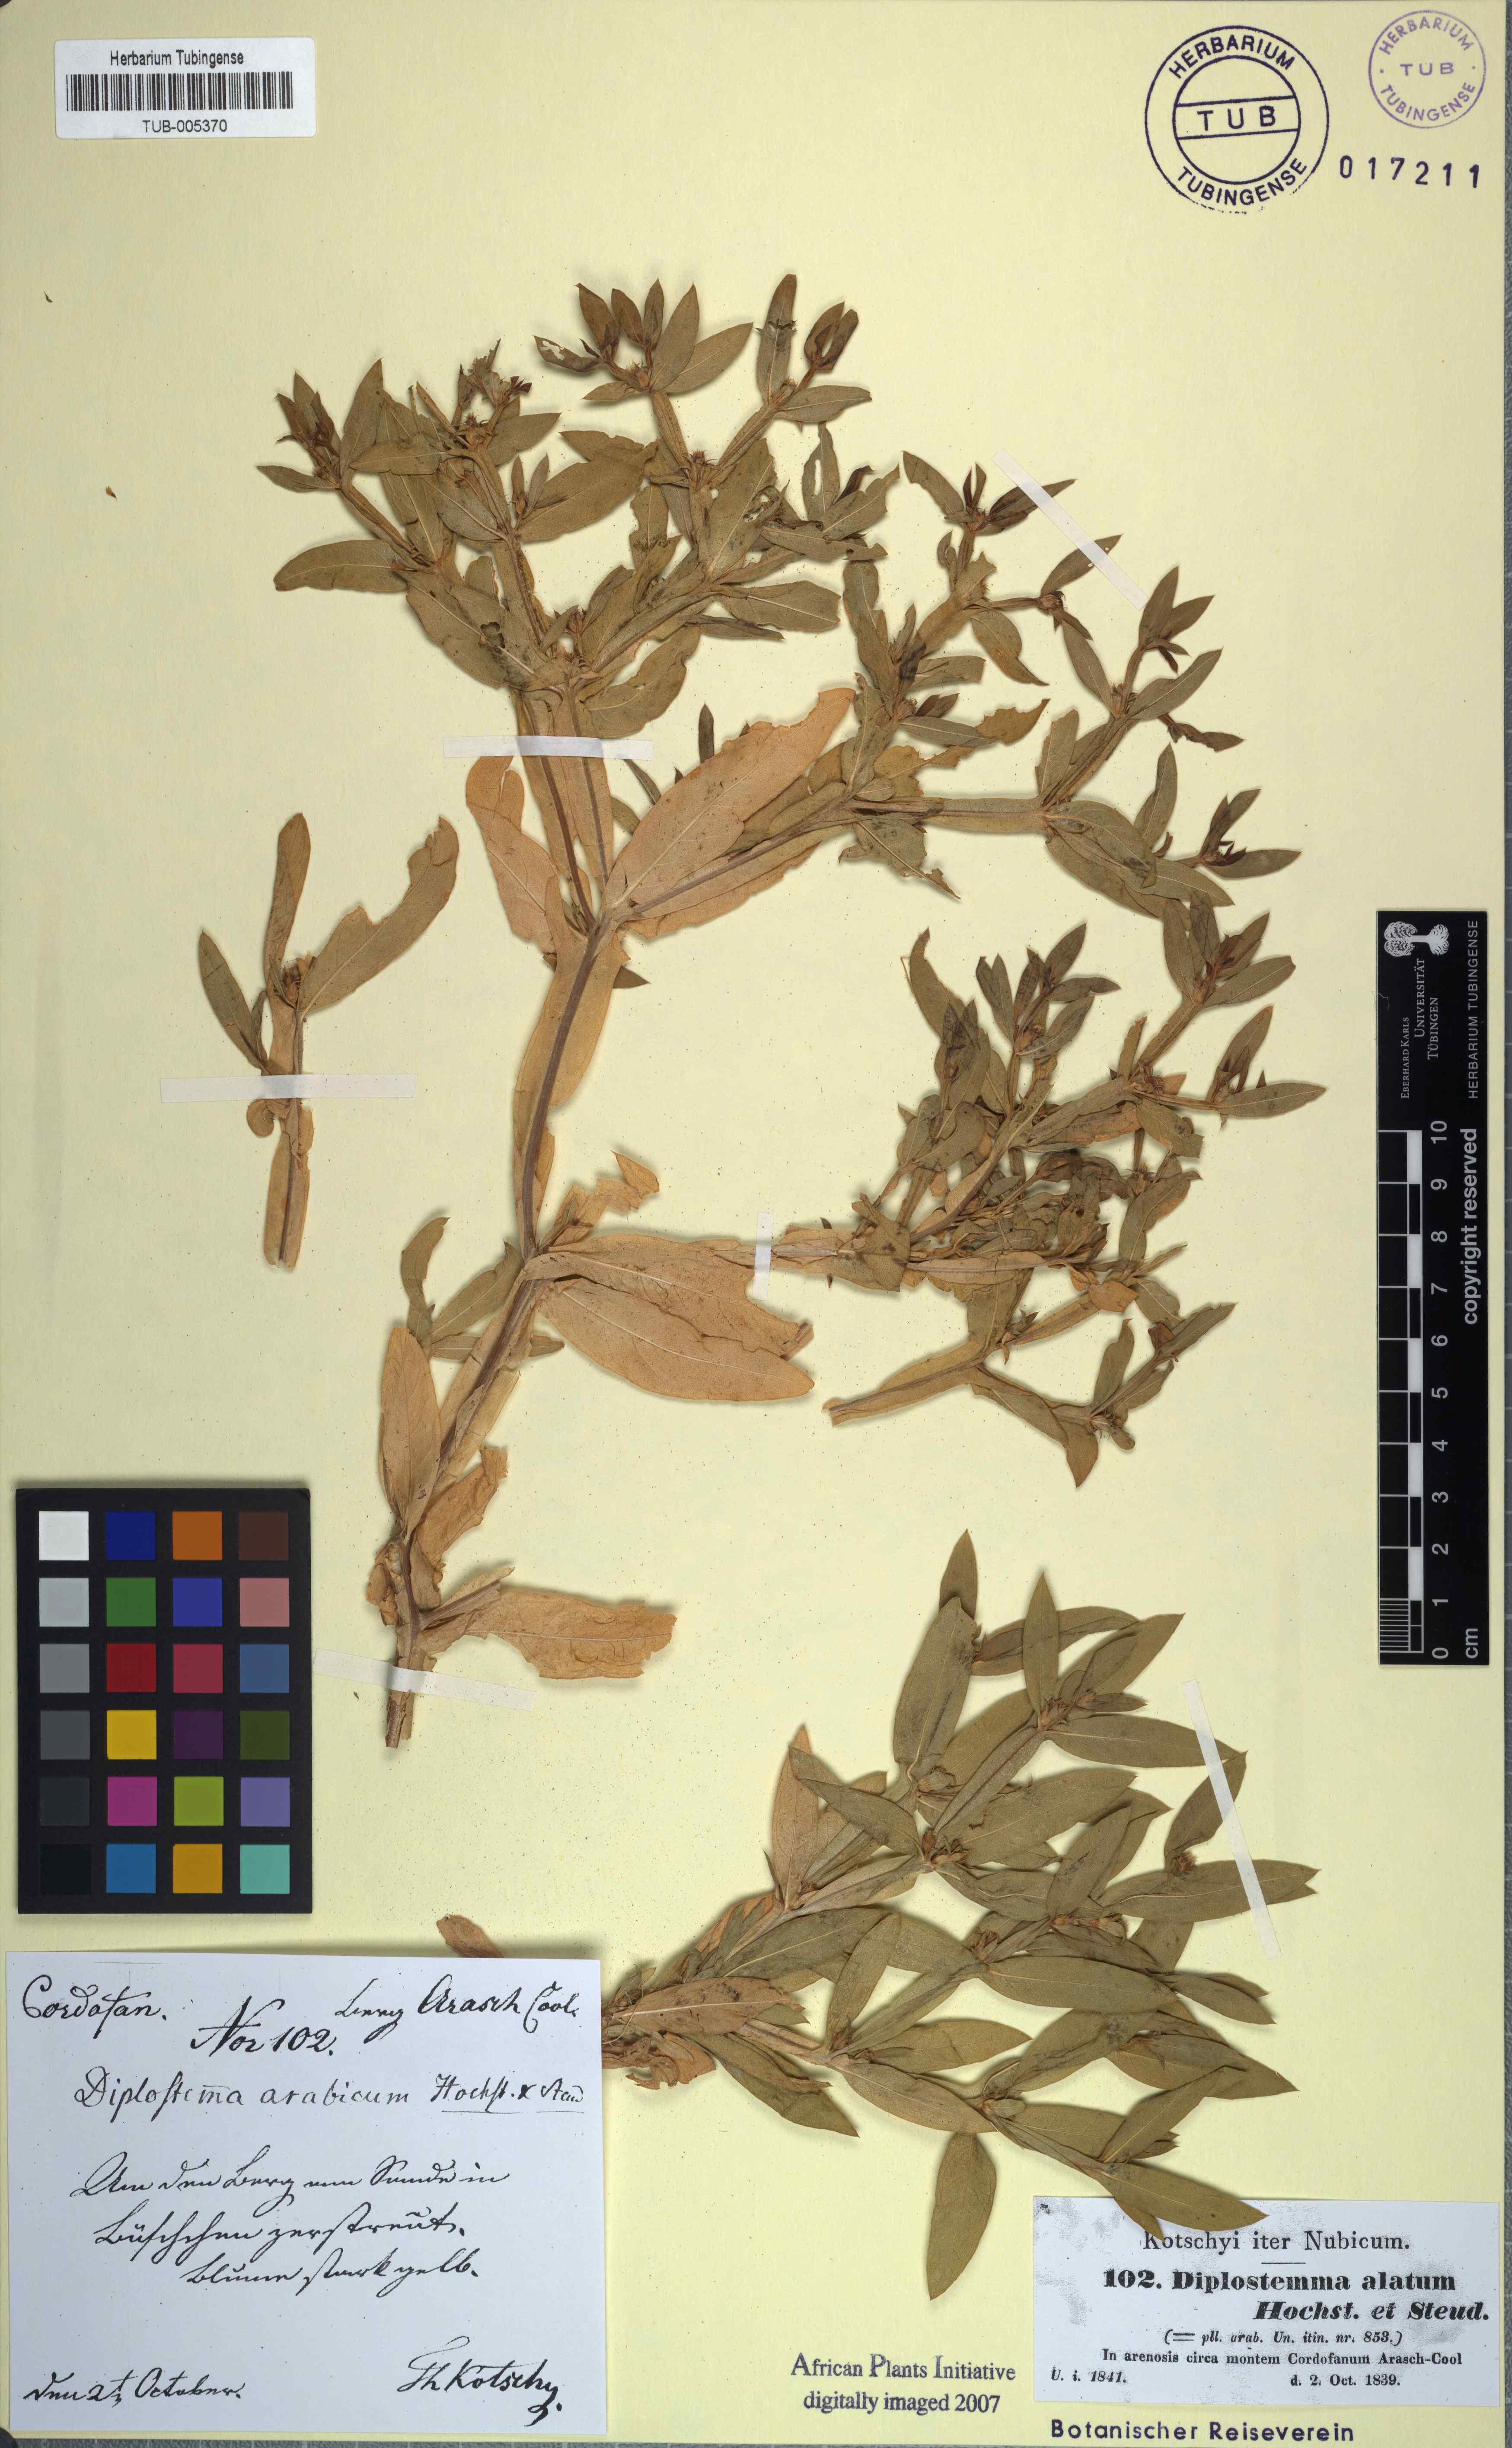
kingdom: Plantae
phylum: Tracheophyta
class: Magnoliopsida
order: Asterales
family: Asteraceae
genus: Geigeria
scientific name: Geigeria alata
